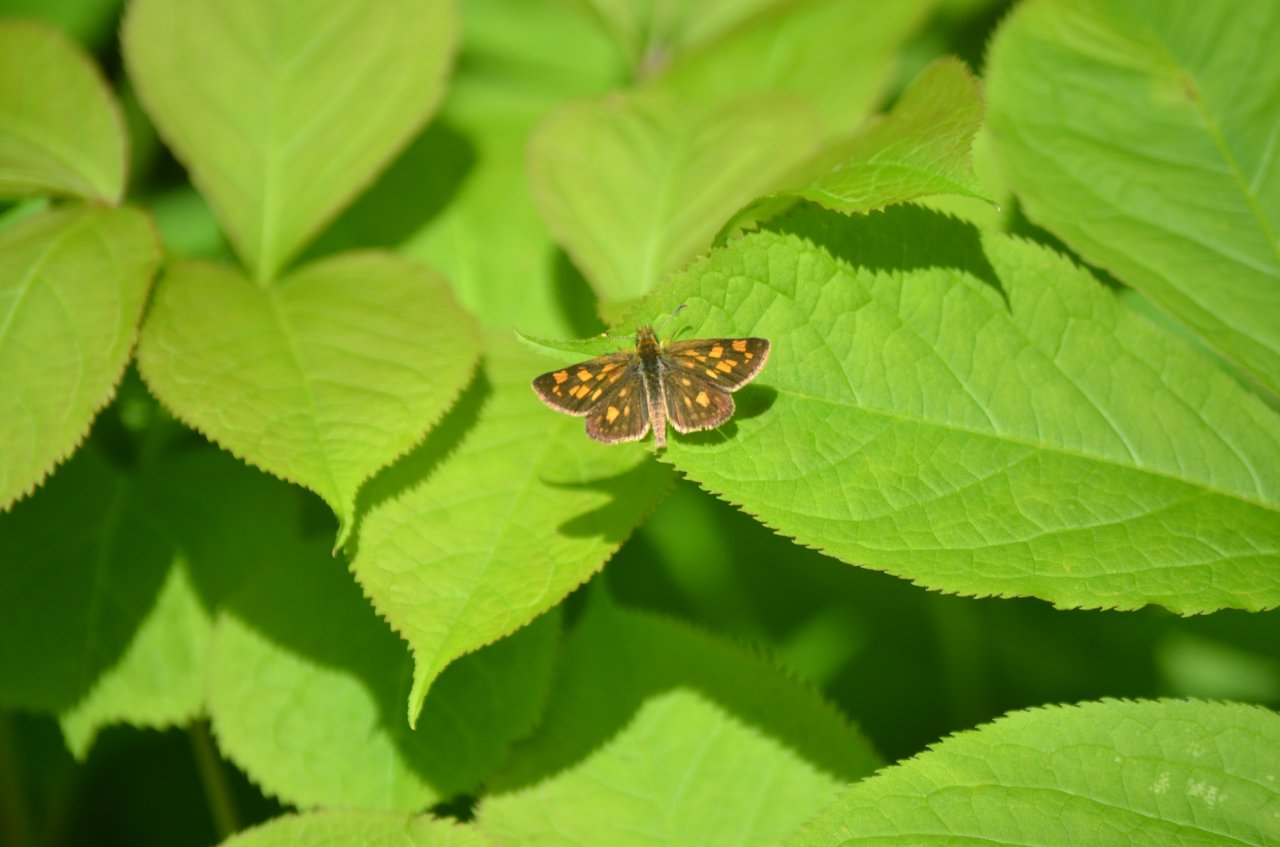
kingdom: Animalia
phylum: Arthropoda
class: Insecta
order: Lepidoptera
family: Hesperiidae
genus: Carterocephalus
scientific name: Carterocephalus palaemon
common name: Chequered Skipper
